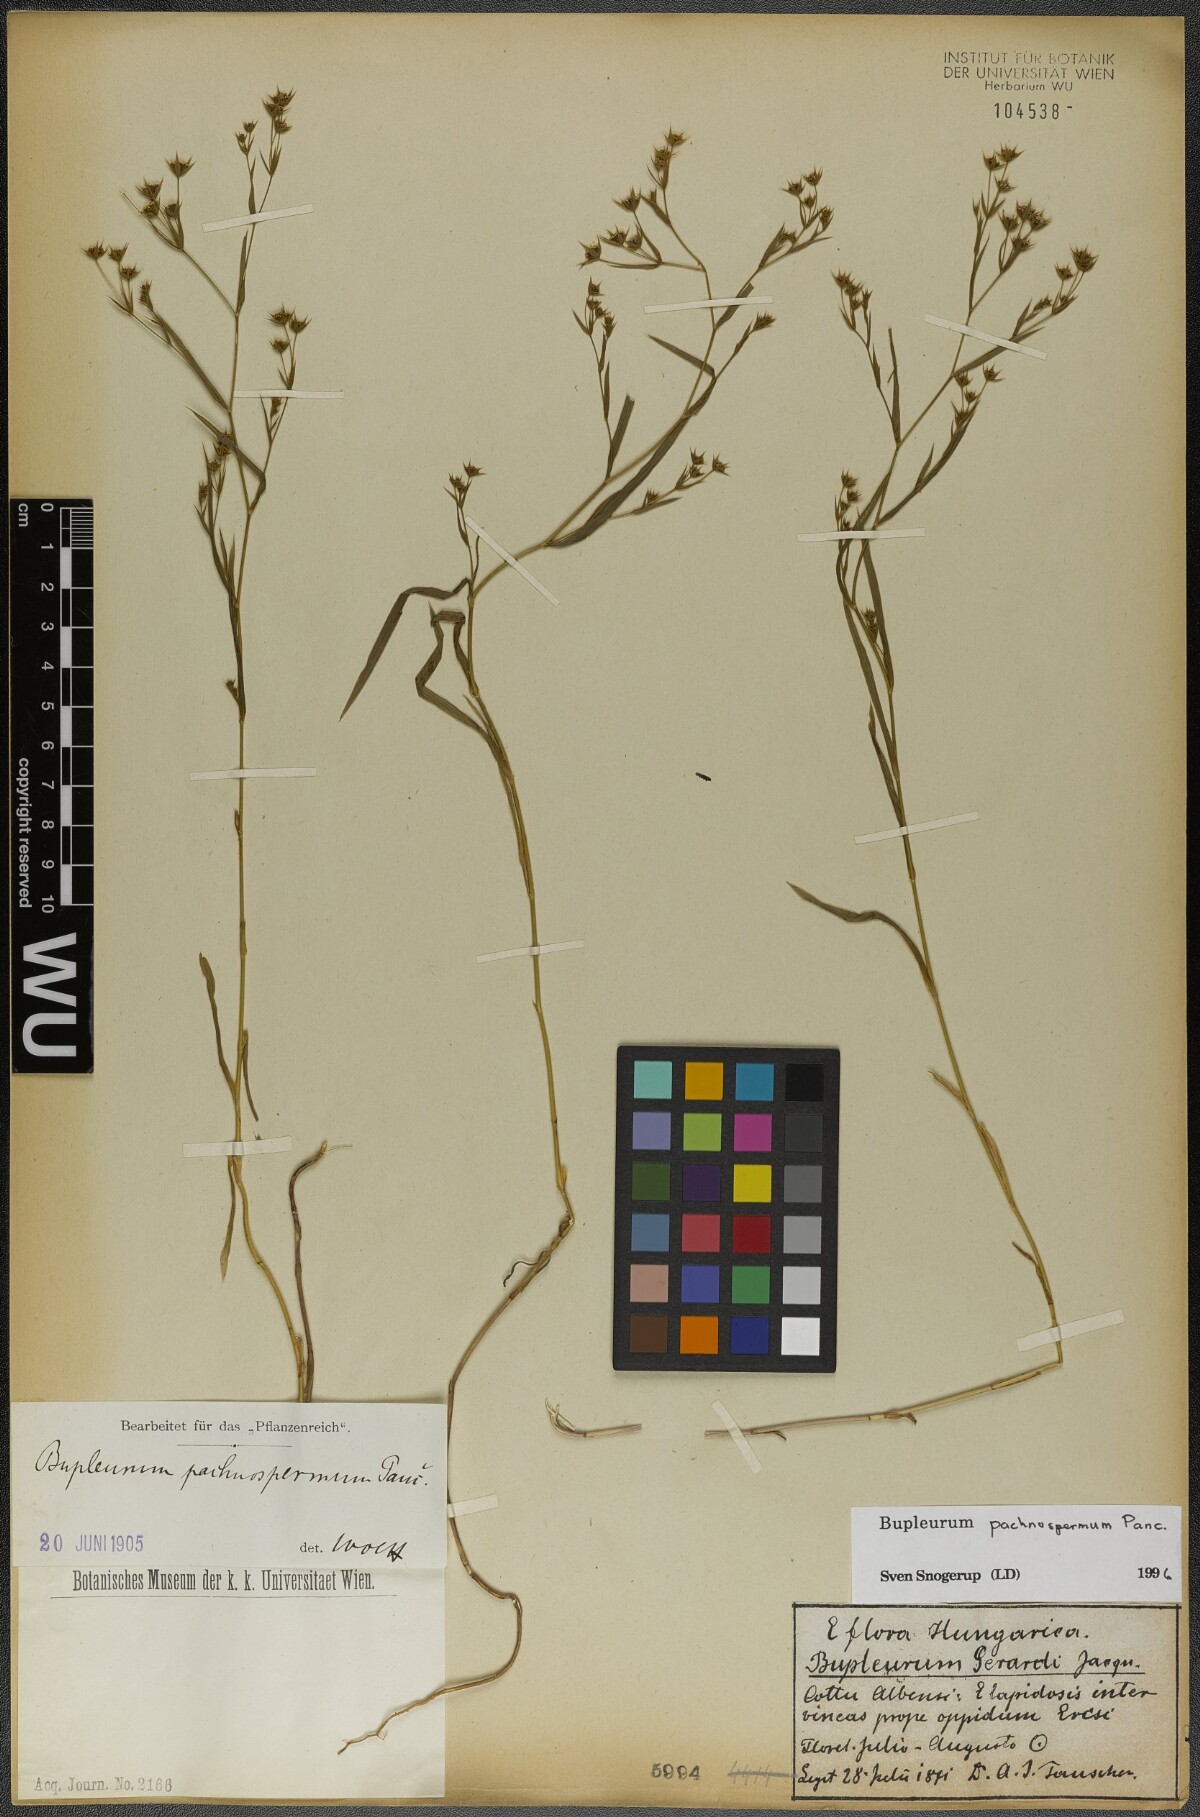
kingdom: Plantae
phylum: Tracheophyta
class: Magnoliopsida
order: Apiales
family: Apiaceae
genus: Bupleurum
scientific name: Bupleurum pachnospermum
